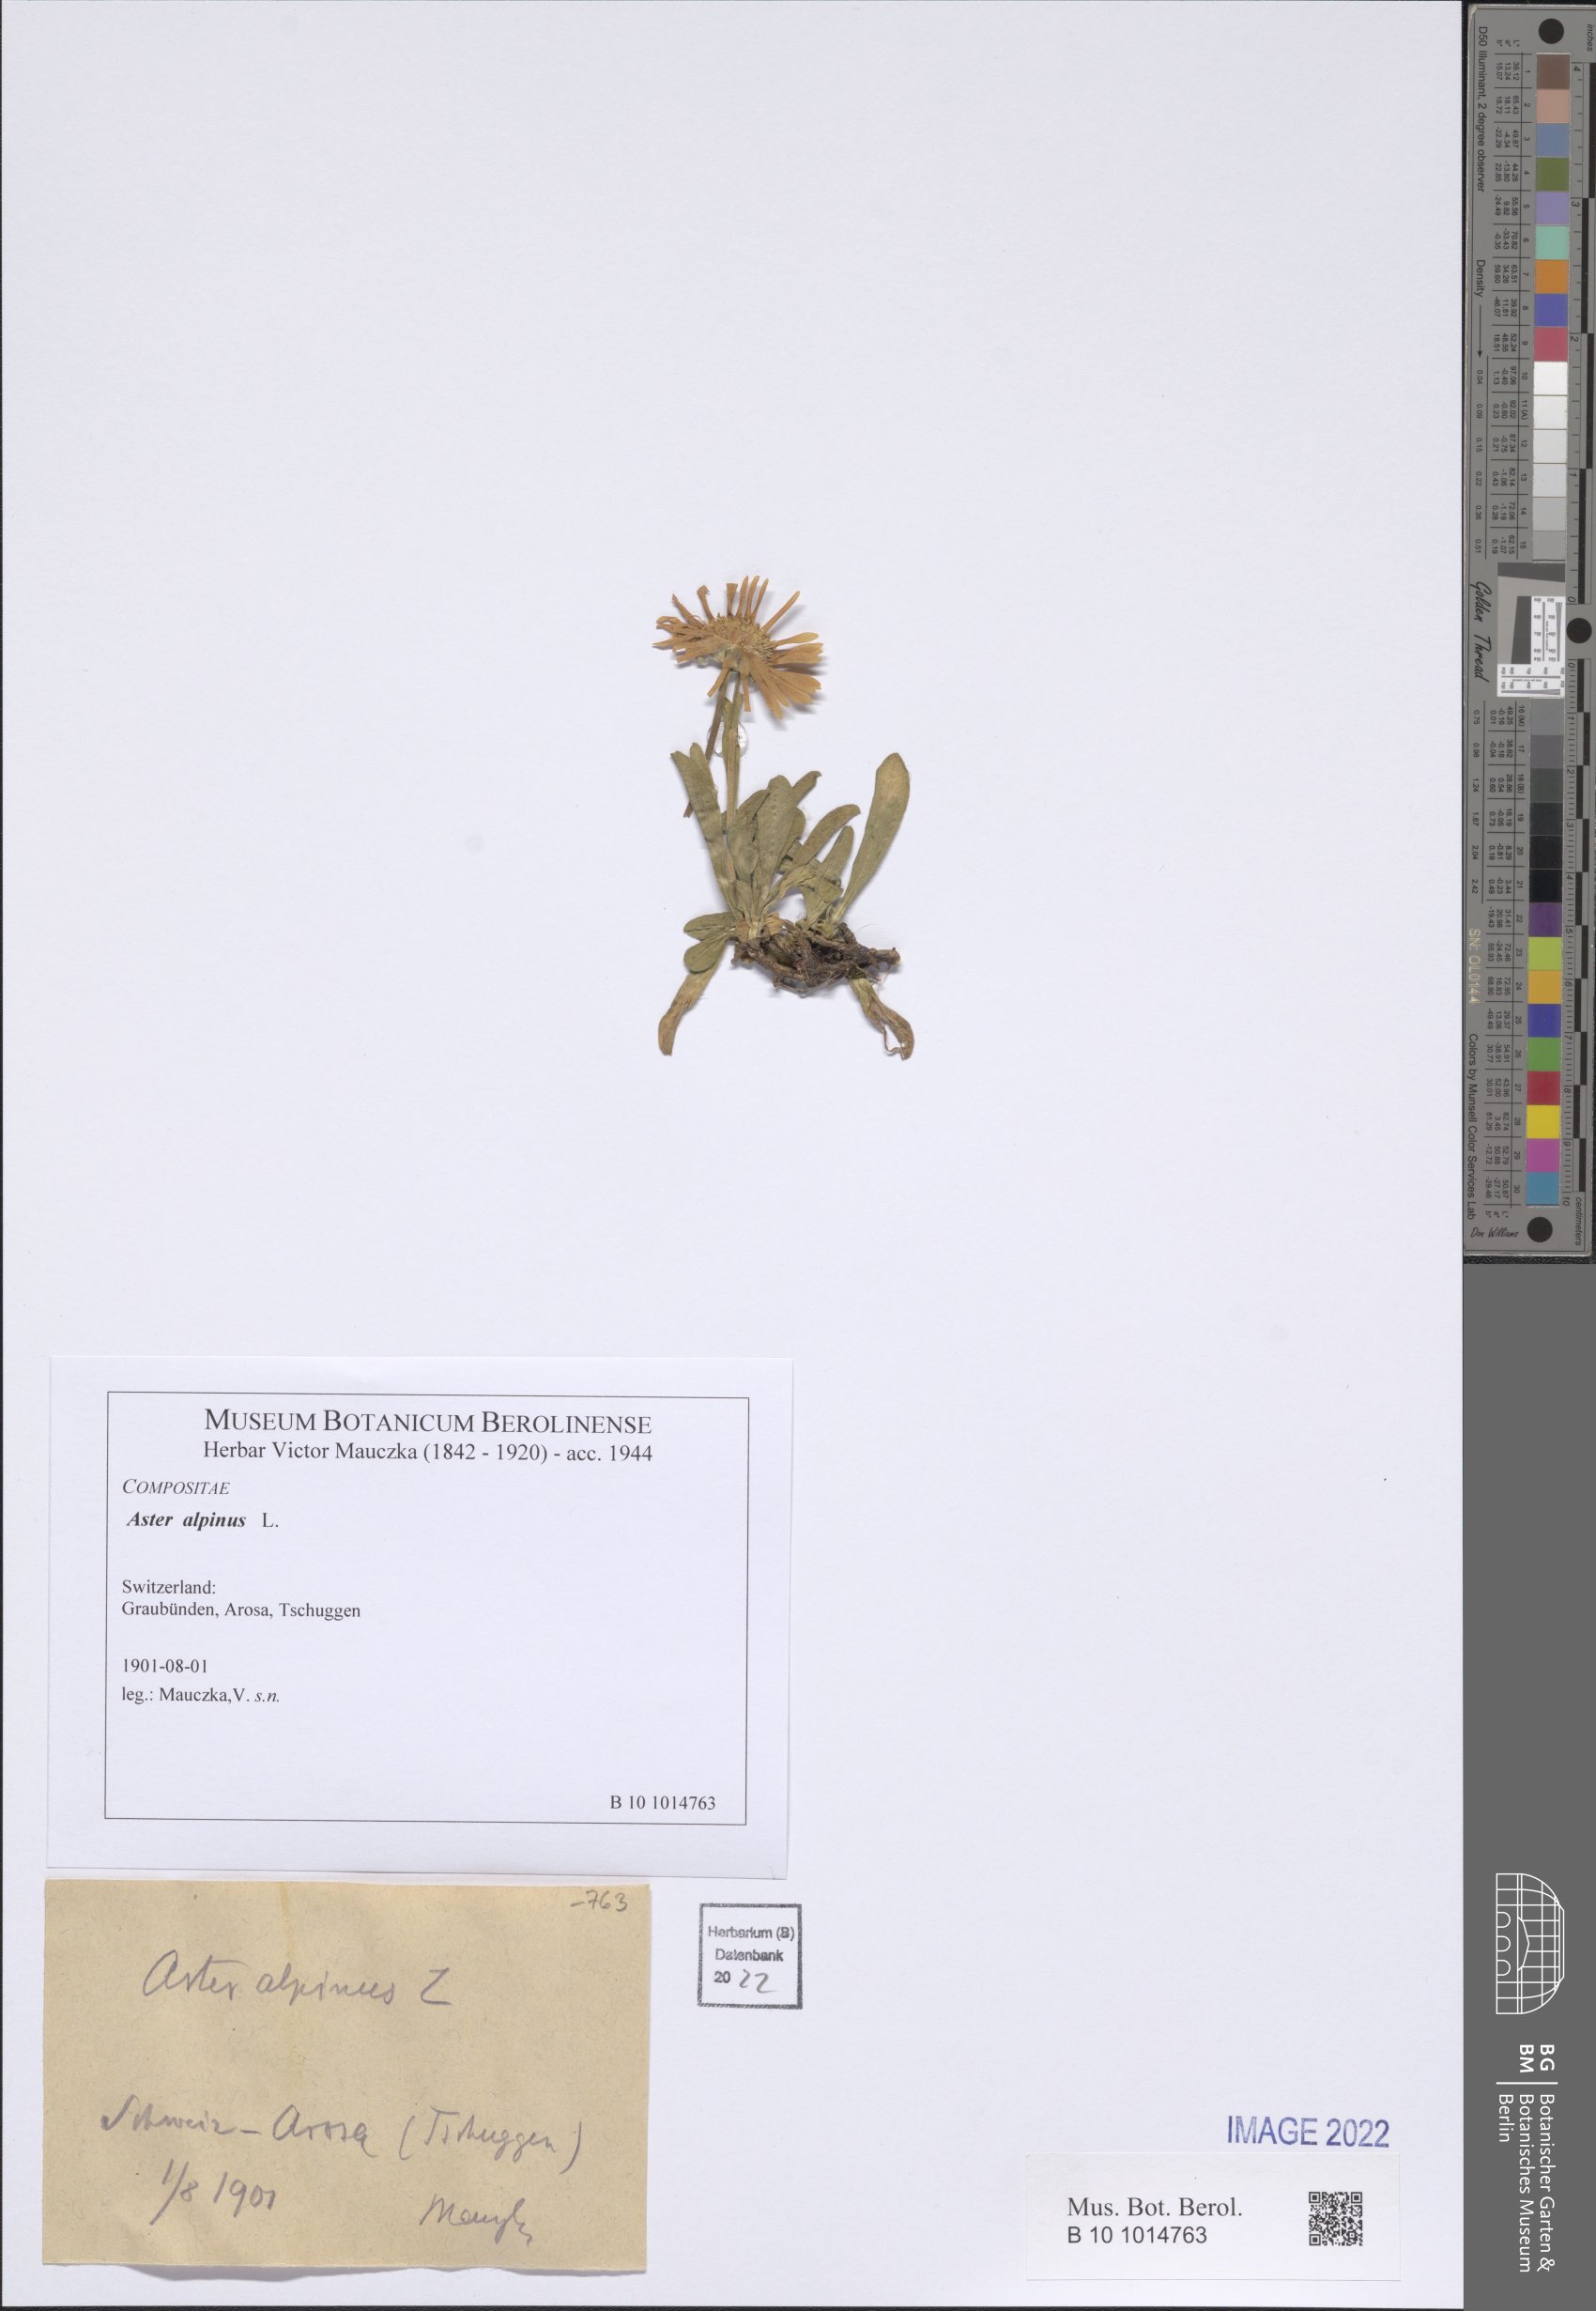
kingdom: Plantae
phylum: Tracheophyta
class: Magnoliopsida
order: Asterales
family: Asteraceae
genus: Aster
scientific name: Aster alpinus
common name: Alpine aster
